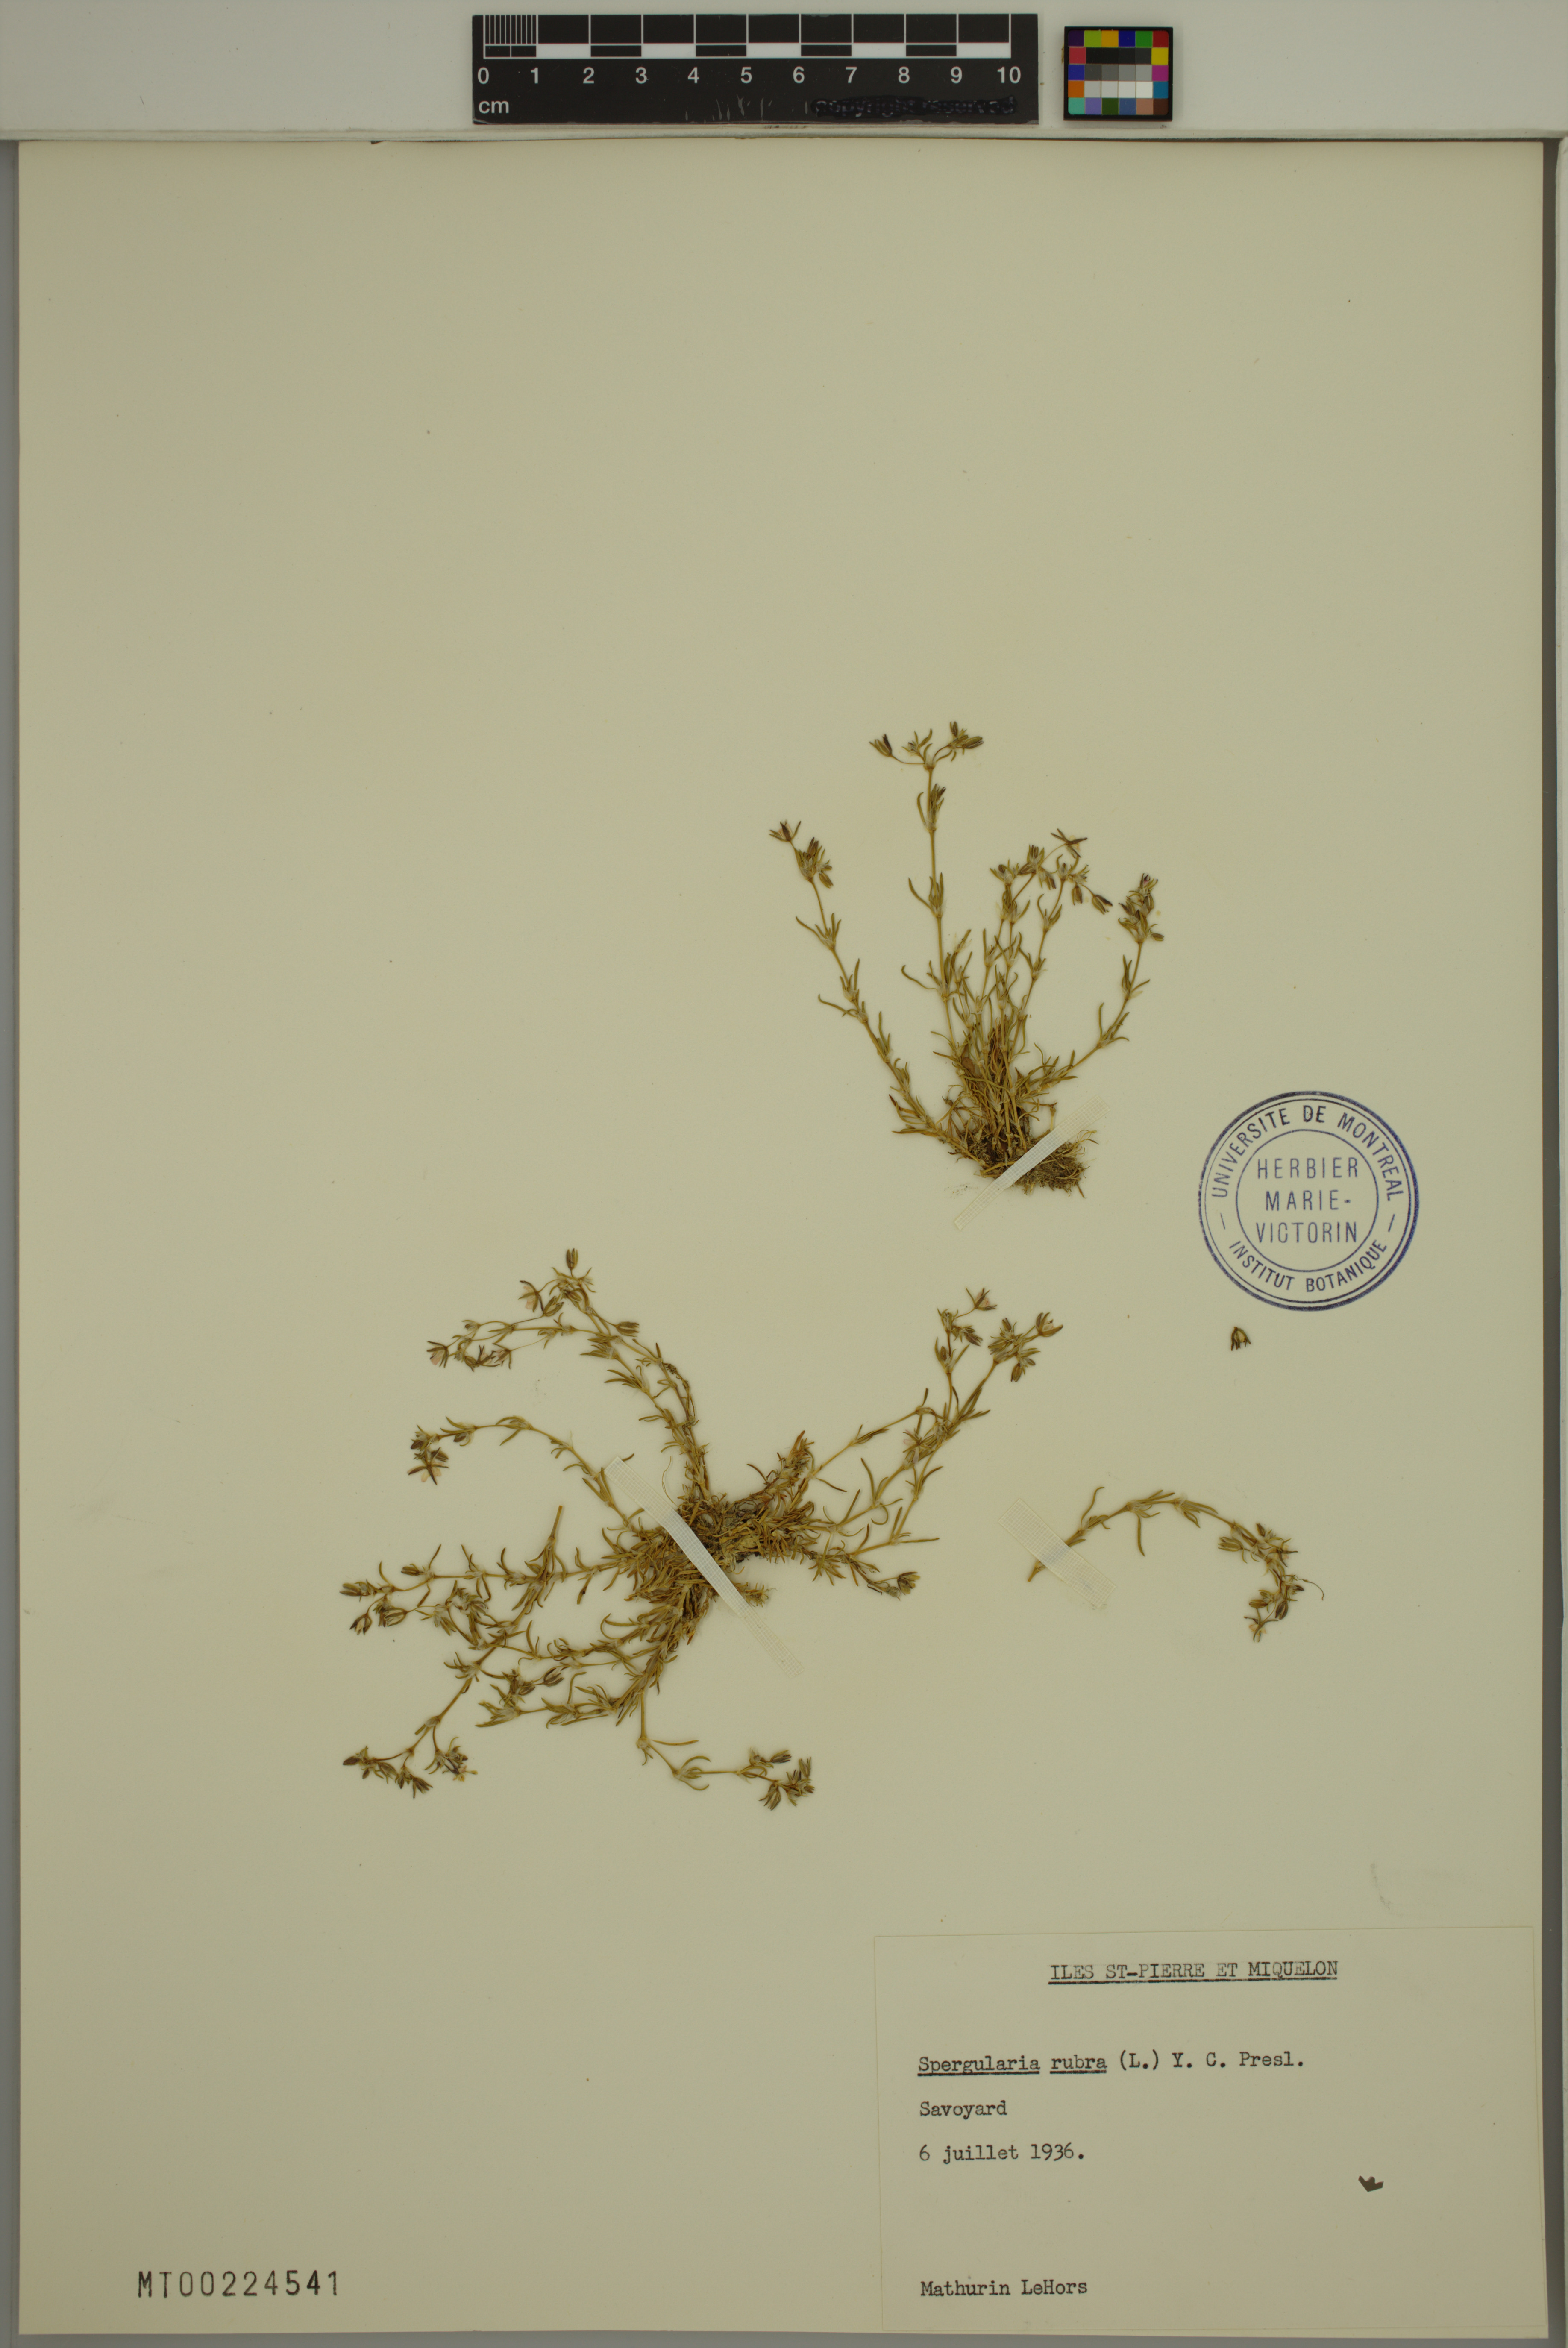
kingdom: Plantae
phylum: Tracheophyta
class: Magnoliopsida
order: Caryophyllales
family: Caryophyllaceae
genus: Spergularia
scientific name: Spergularia rubra
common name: Red sand-spurrey
